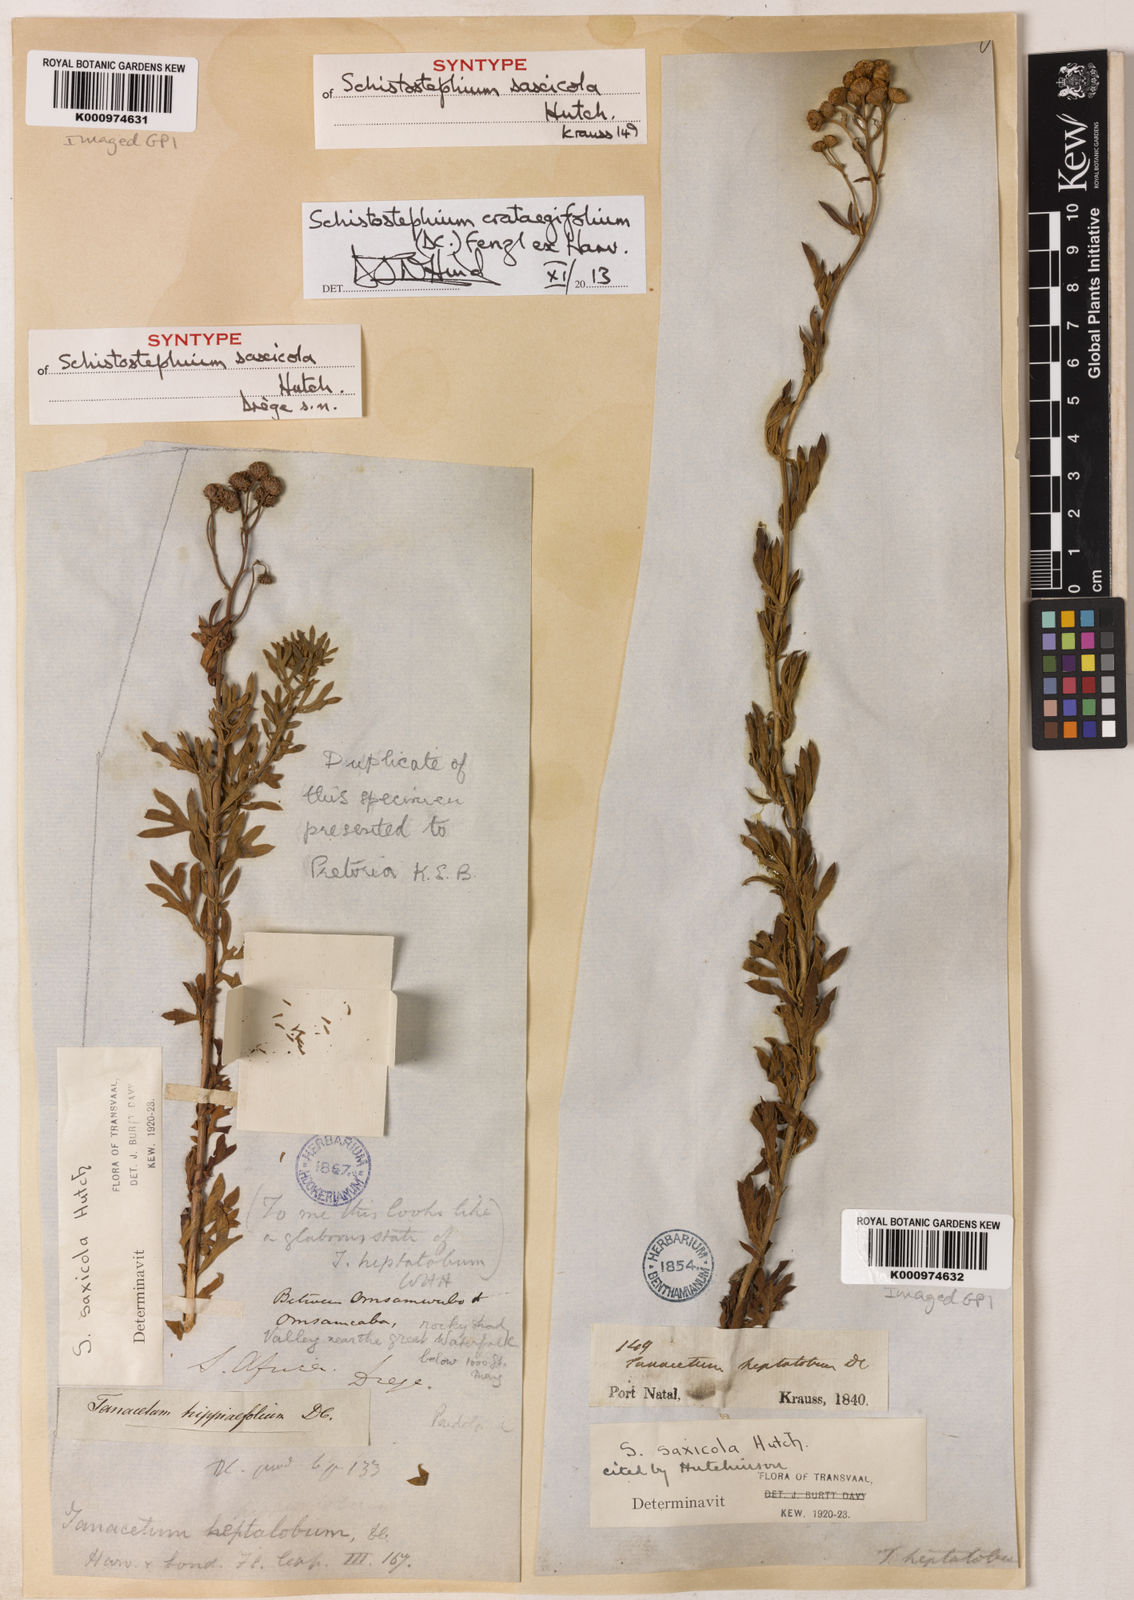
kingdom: Plantae
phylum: Tracheophyta
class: Magnoliopsida
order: Asterales
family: Asteraceae
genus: Schistostephium
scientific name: Schistostephium crataegifolium
